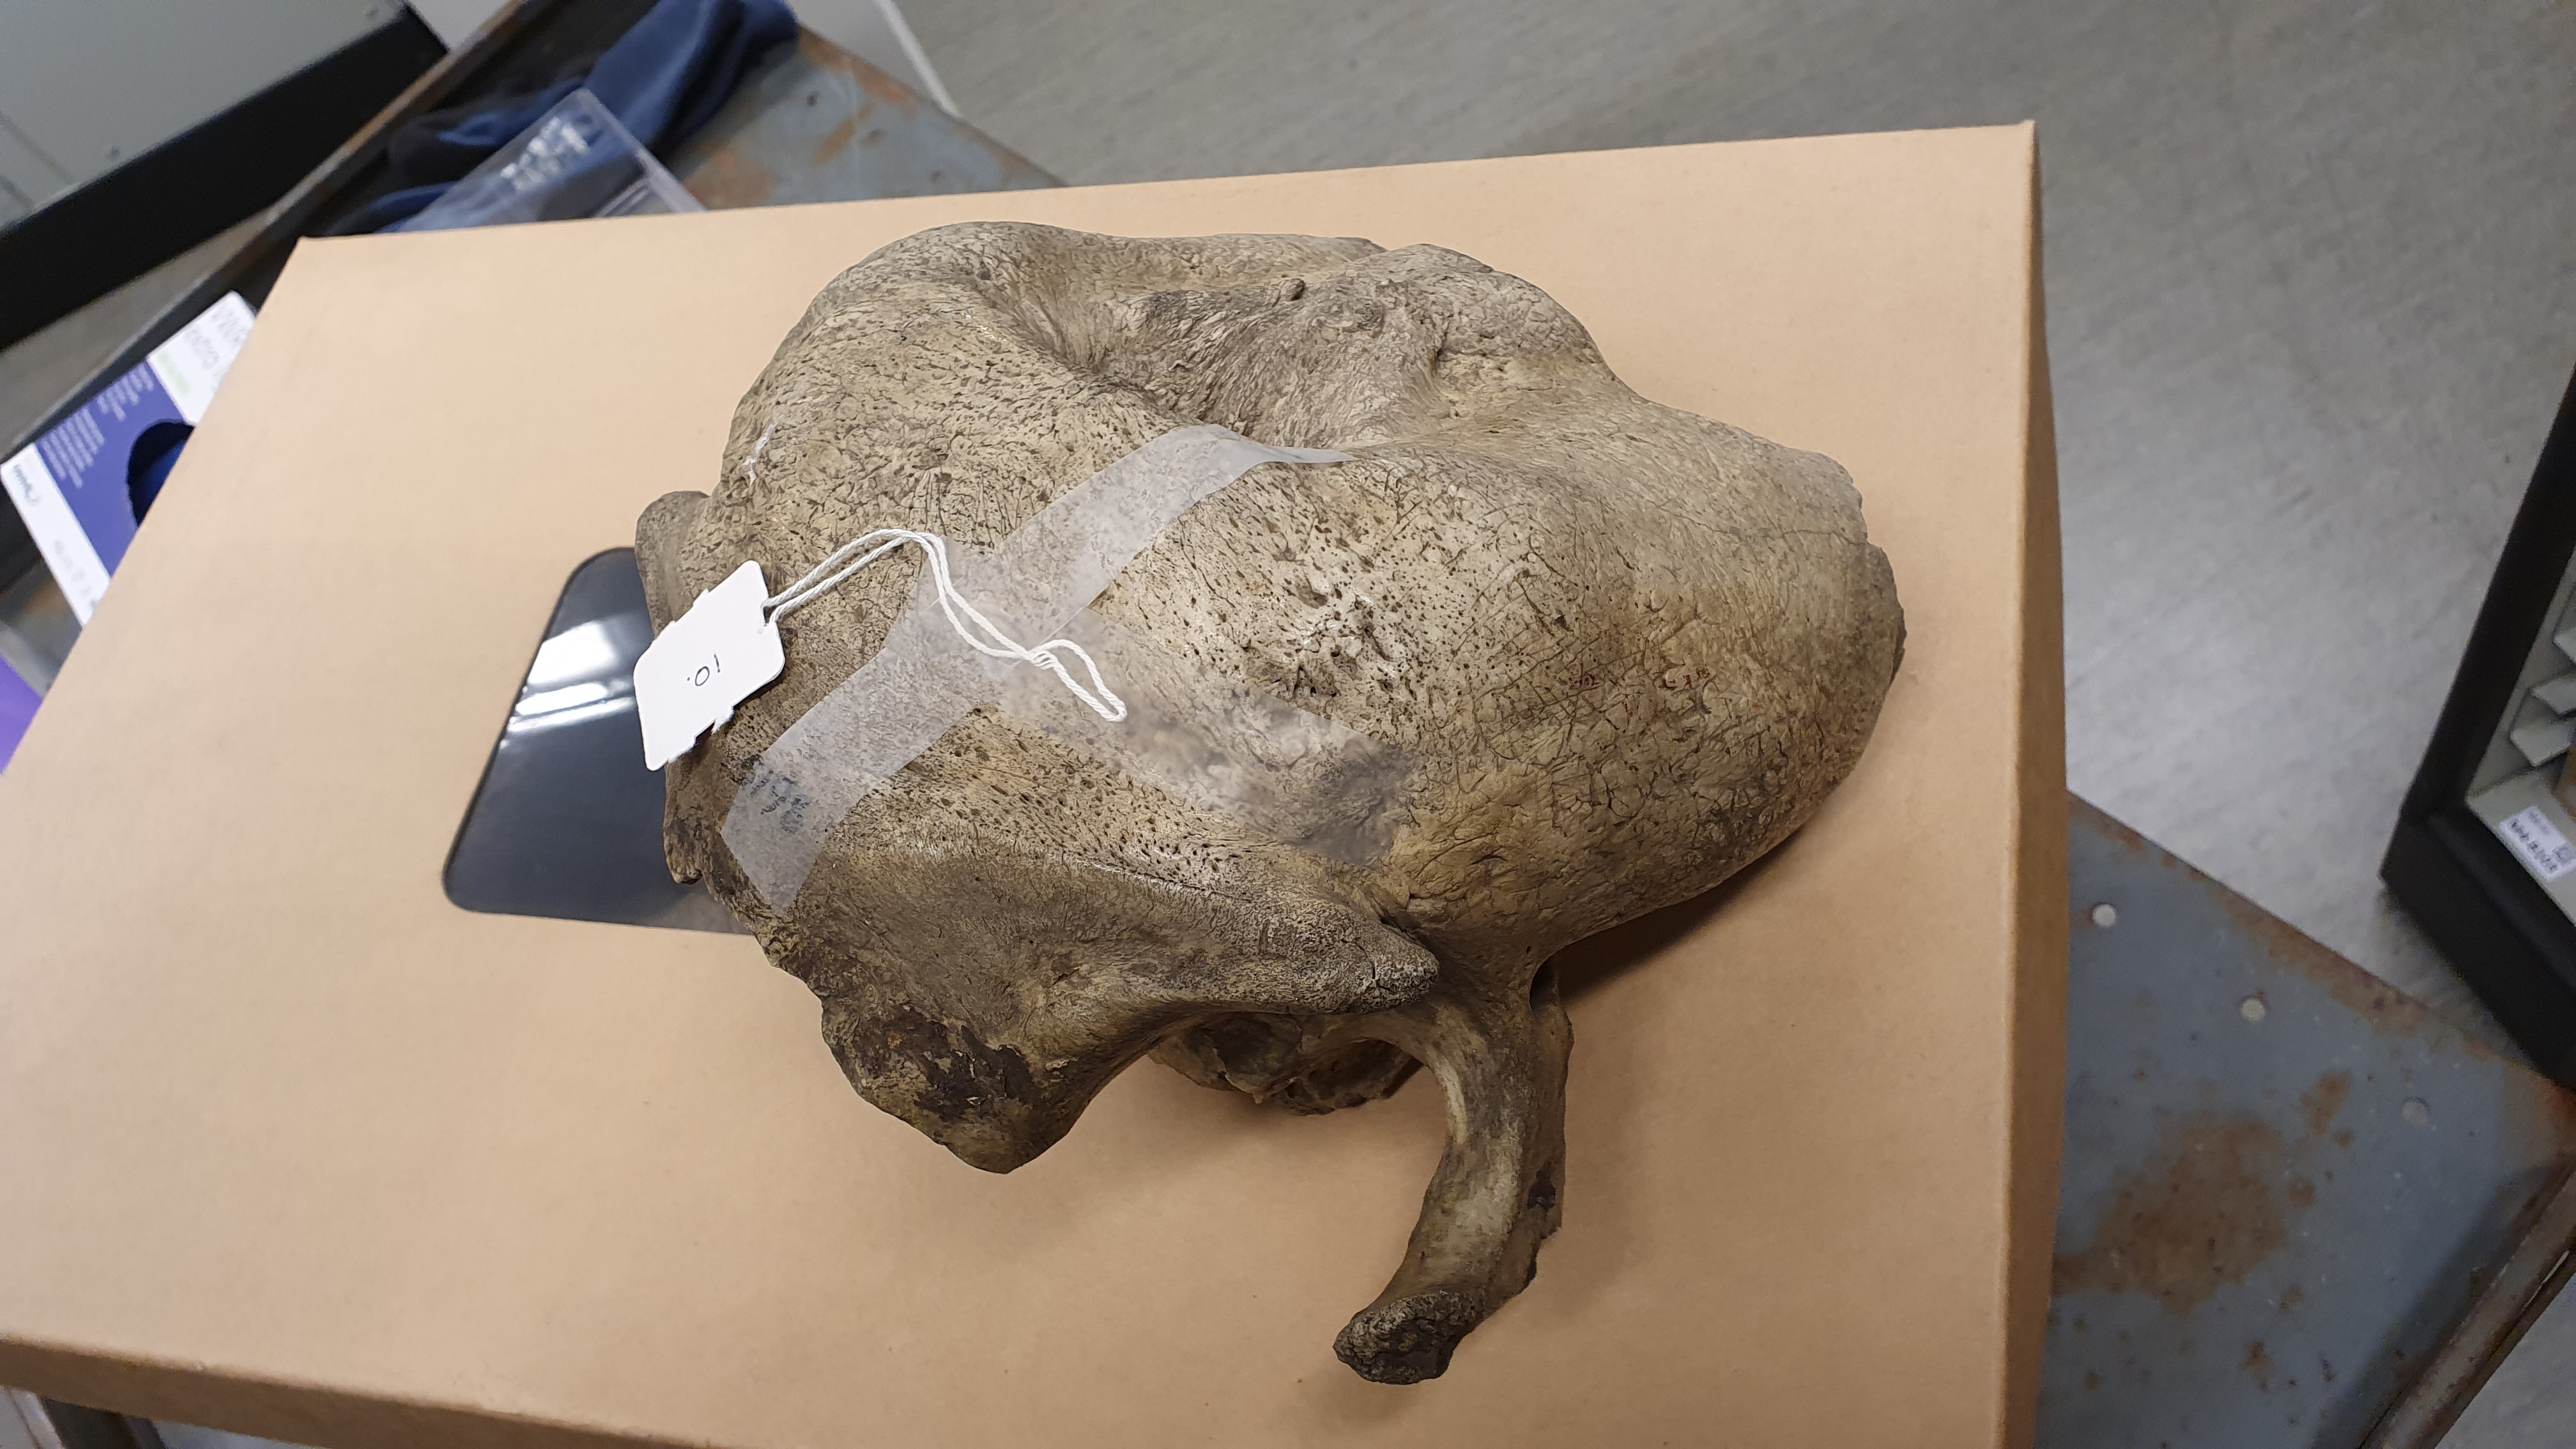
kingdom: Animalia
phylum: Chordata
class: Mammalia
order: Carnivora
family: Odobenidae
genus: Odobenus
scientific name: Odobenus rosmarus
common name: Walrus
